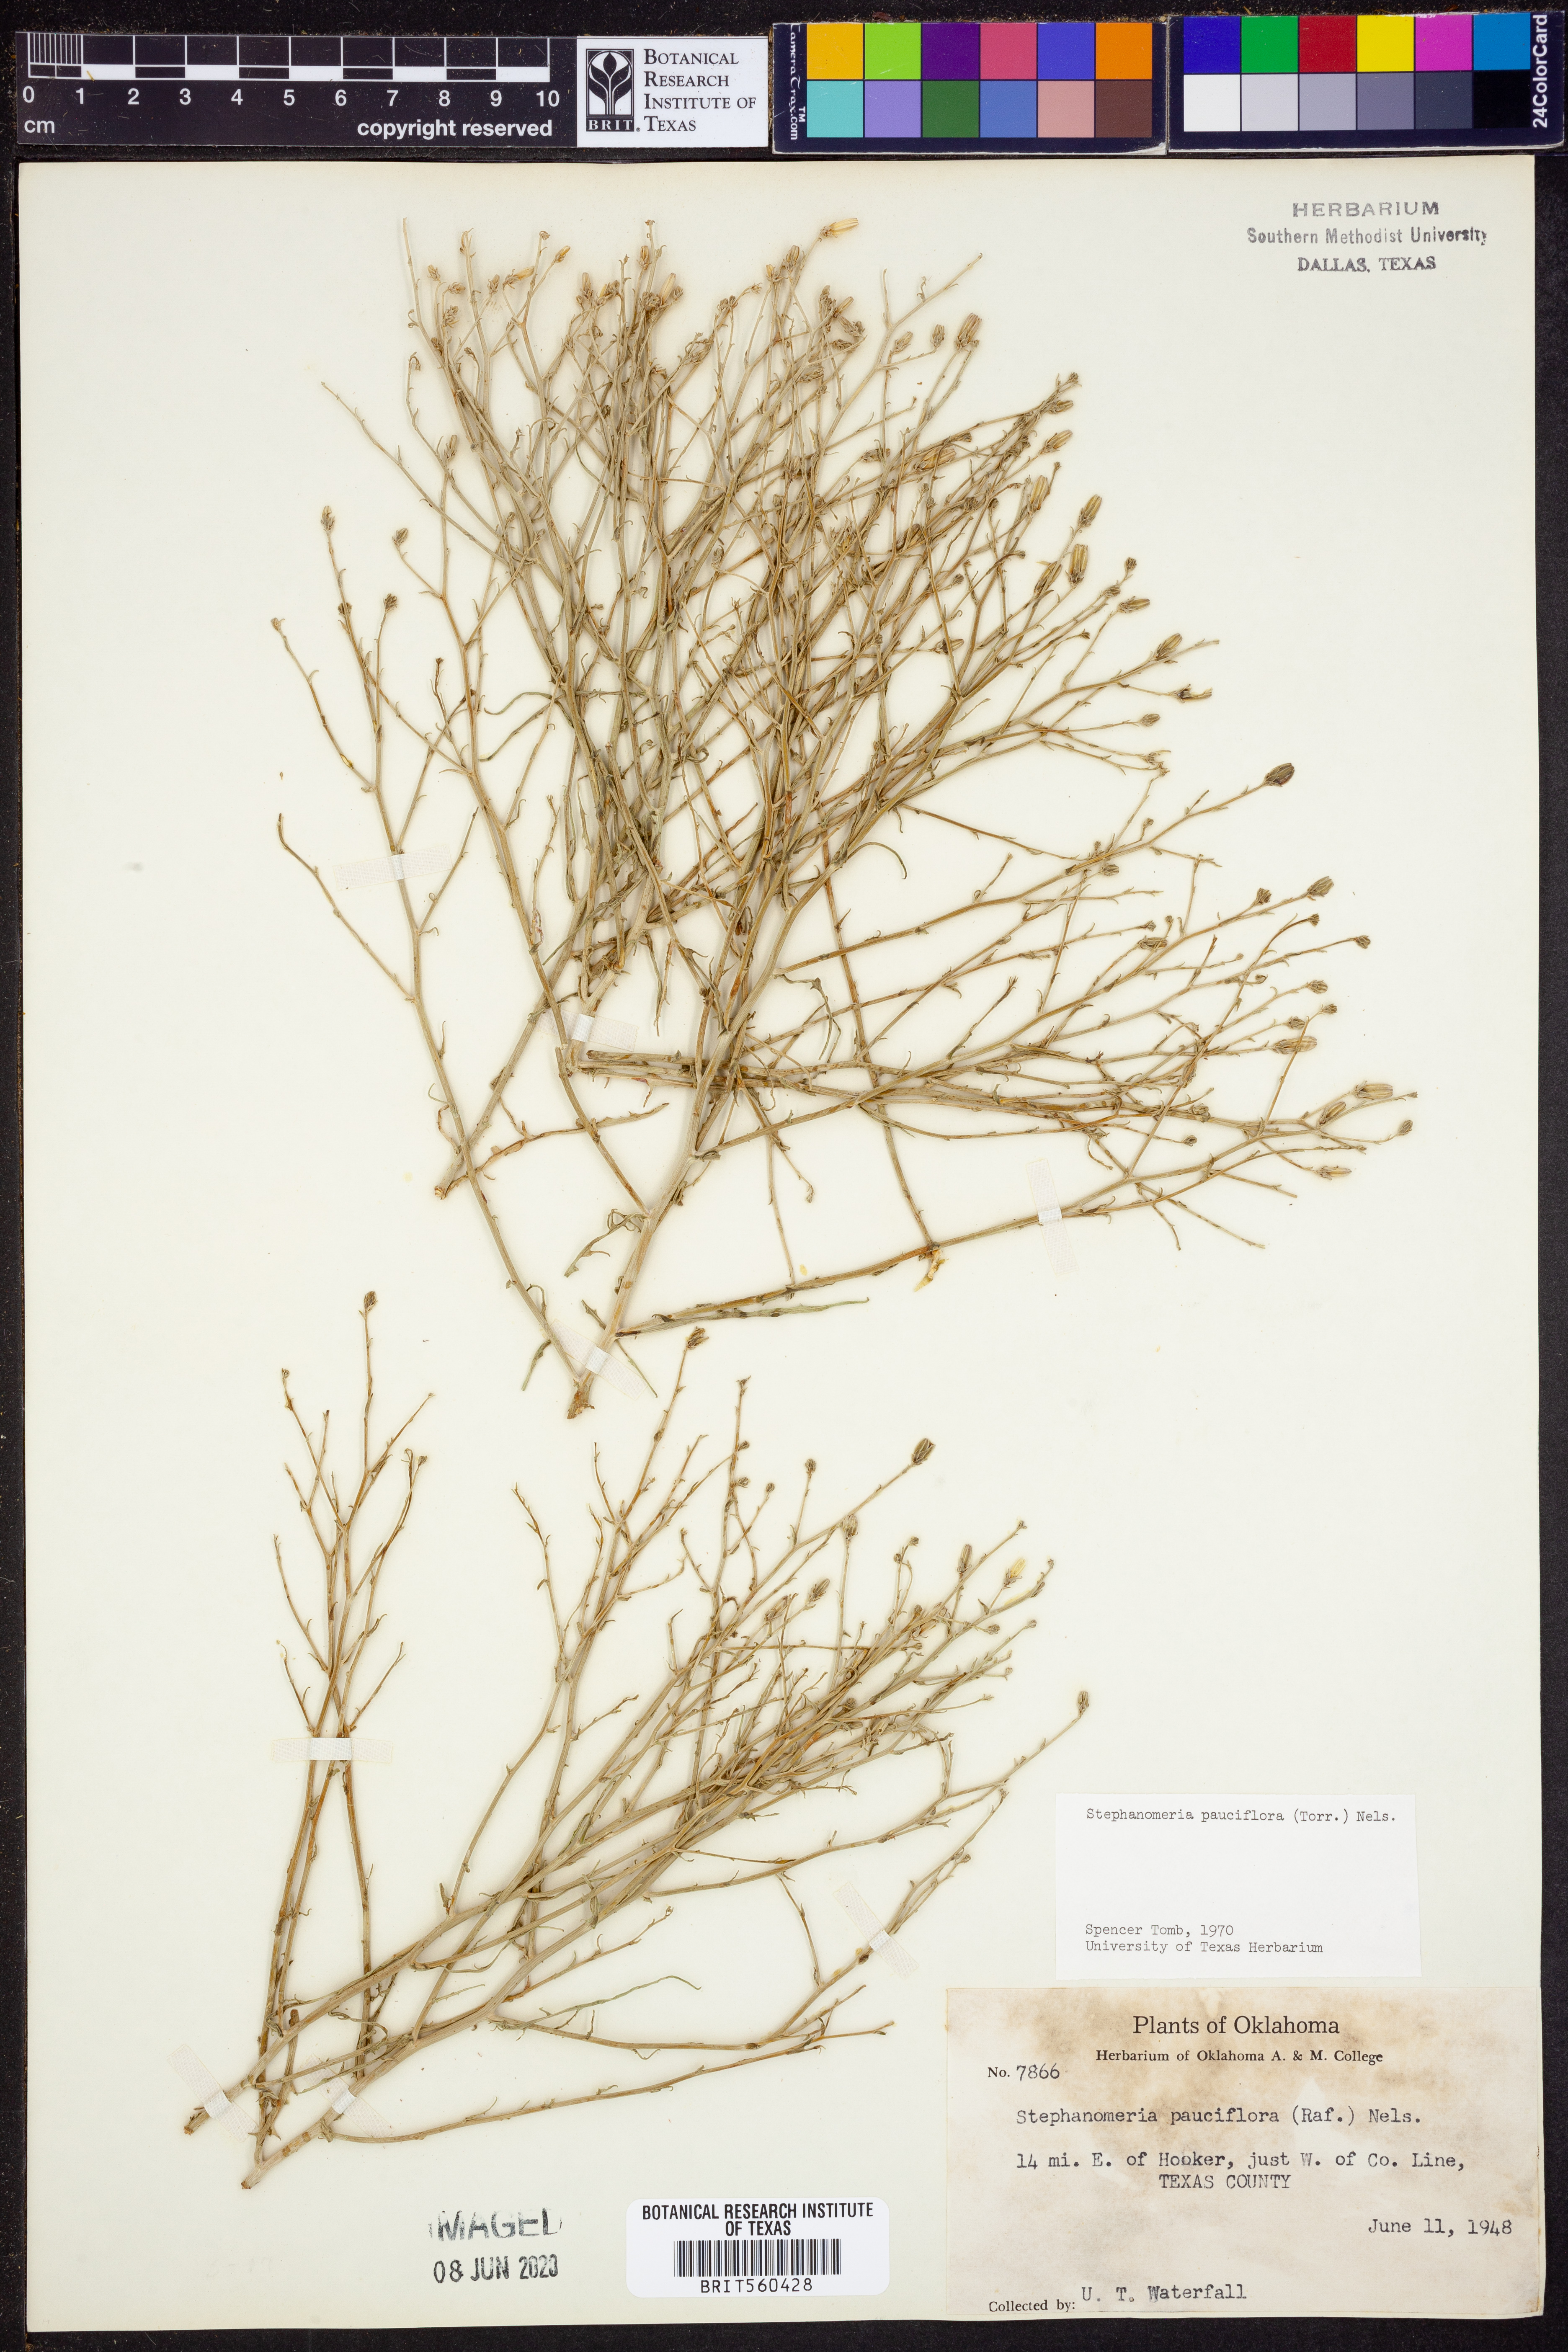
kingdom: Plantae
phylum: Tracheophyta
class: Magnoliopsida
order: Asterales
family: Asteraceae
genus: Stephanomeria
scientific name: Stephanomeria pauciflora
